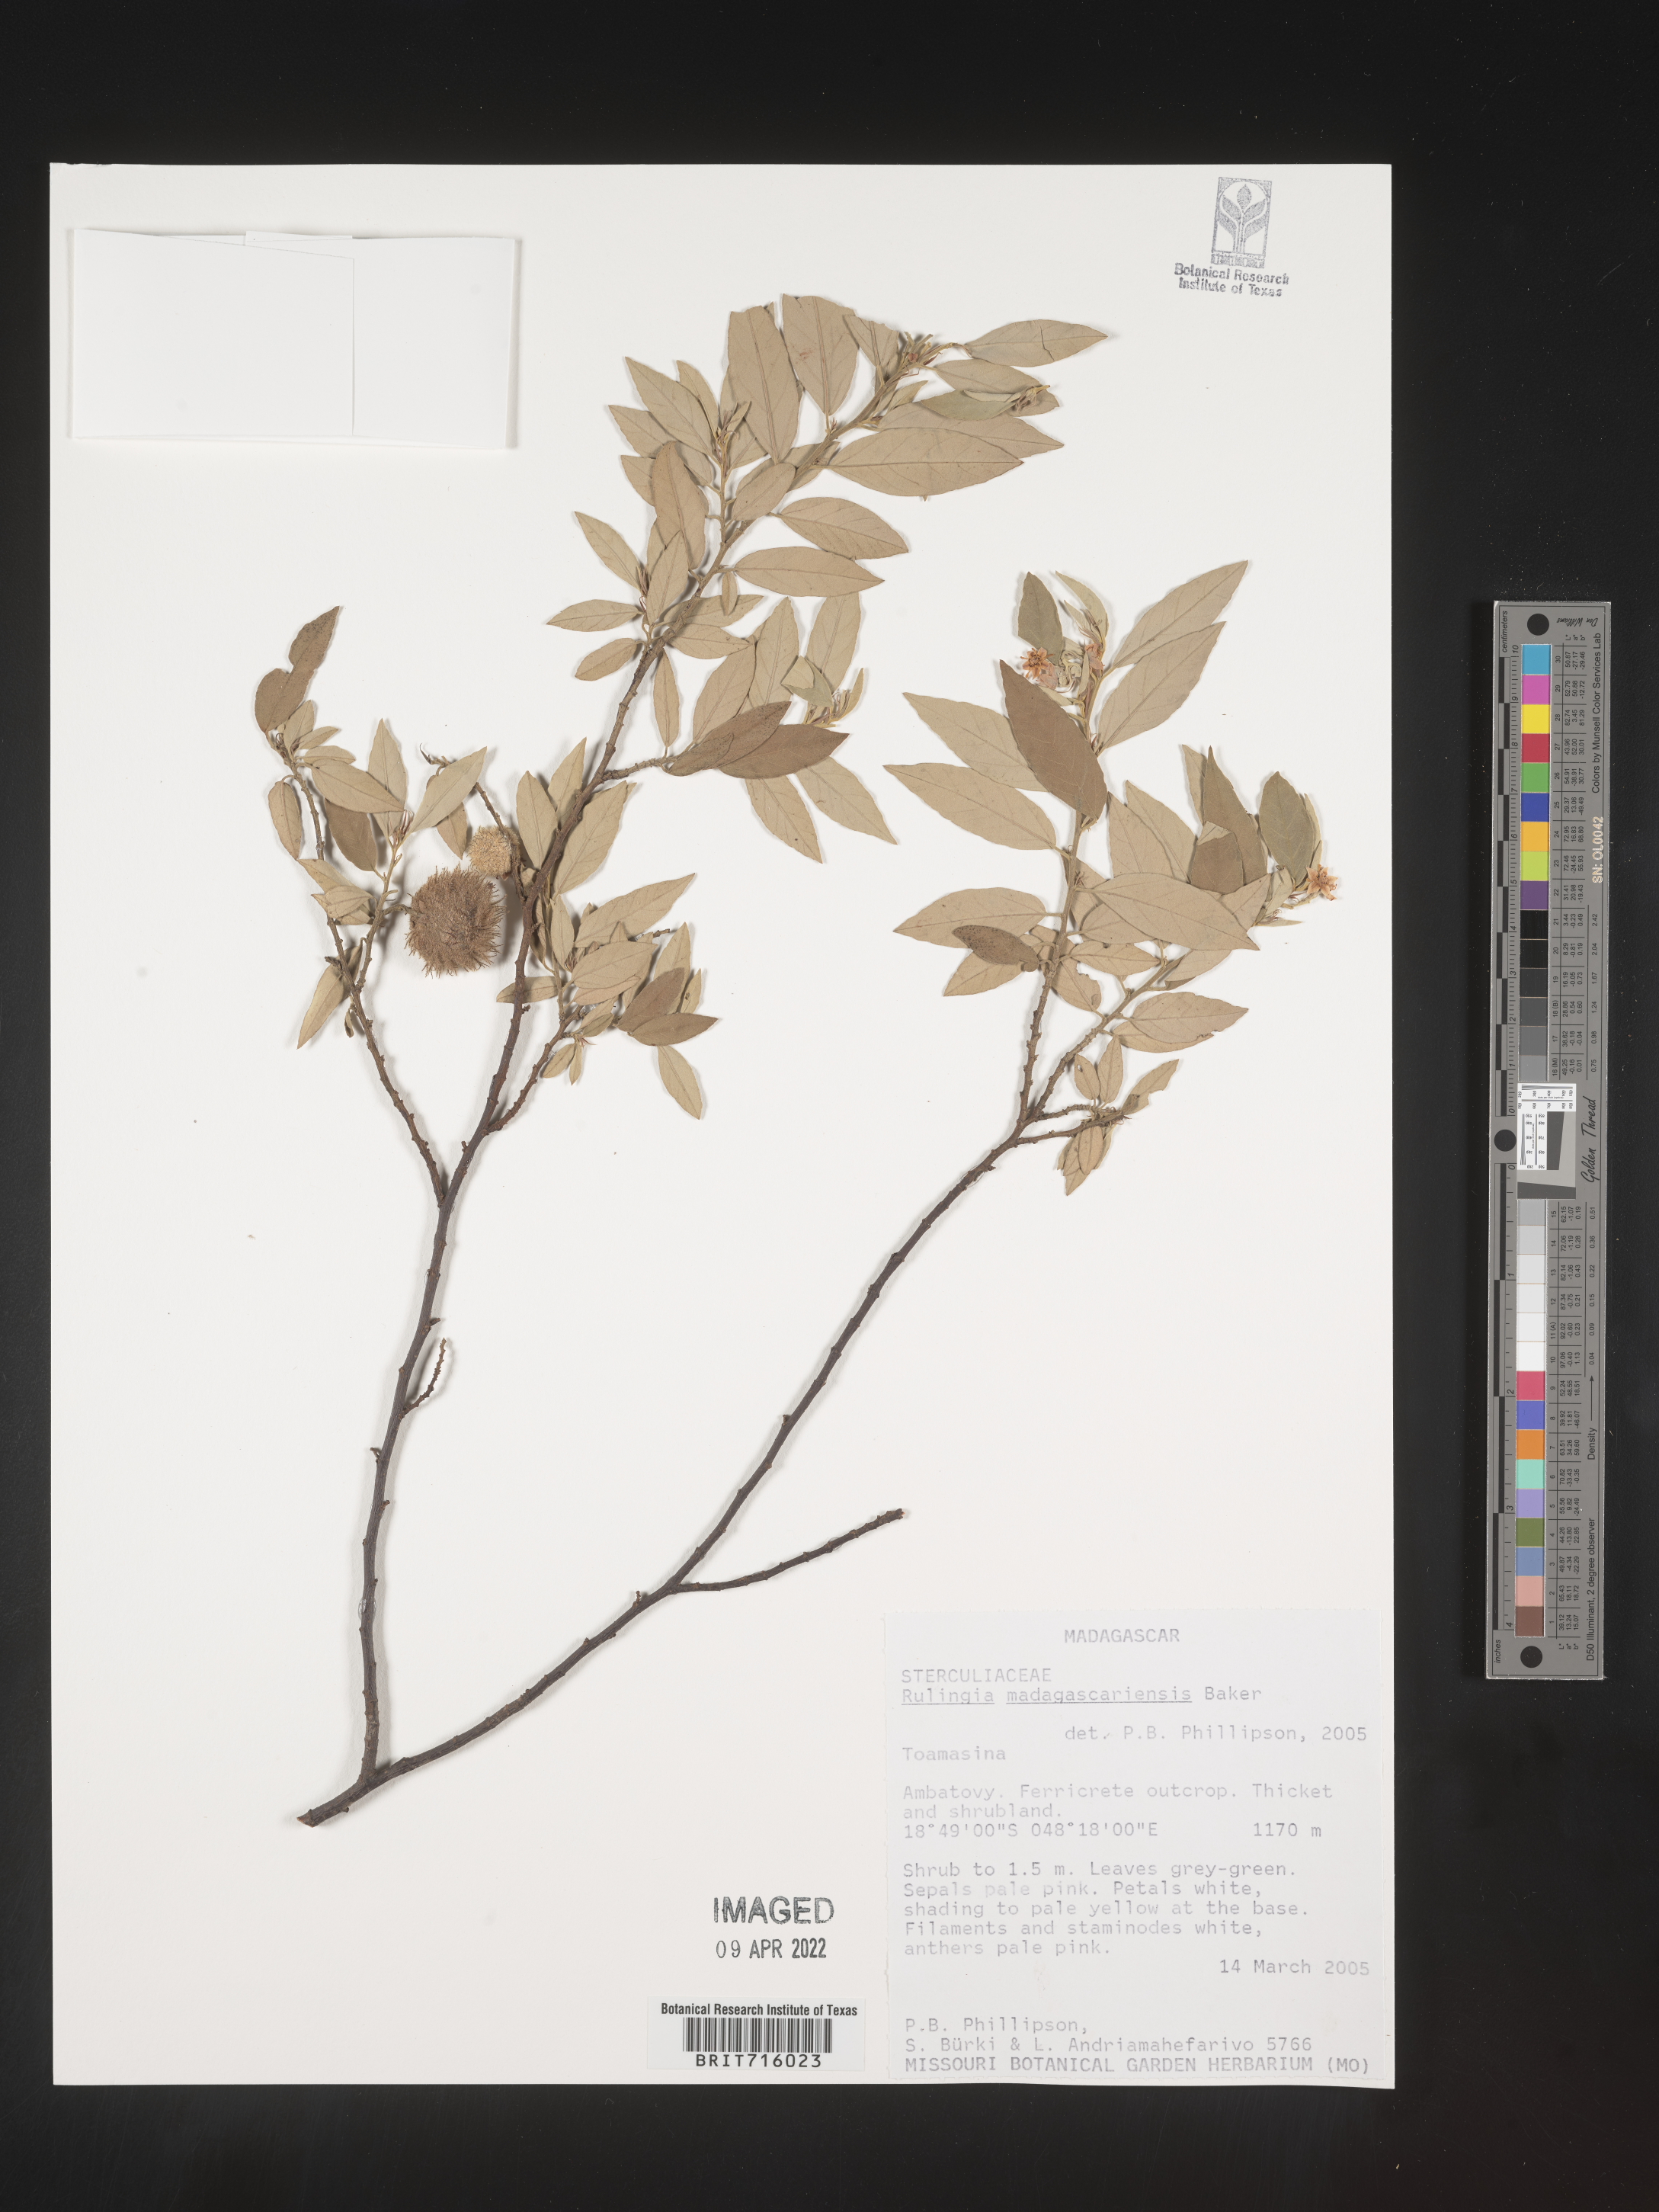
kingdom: Plantae
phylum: Tracheophyta
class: Magnoliopsida
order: Malvales
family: Malvaceae
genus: Commersonia
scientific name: Commersonia
